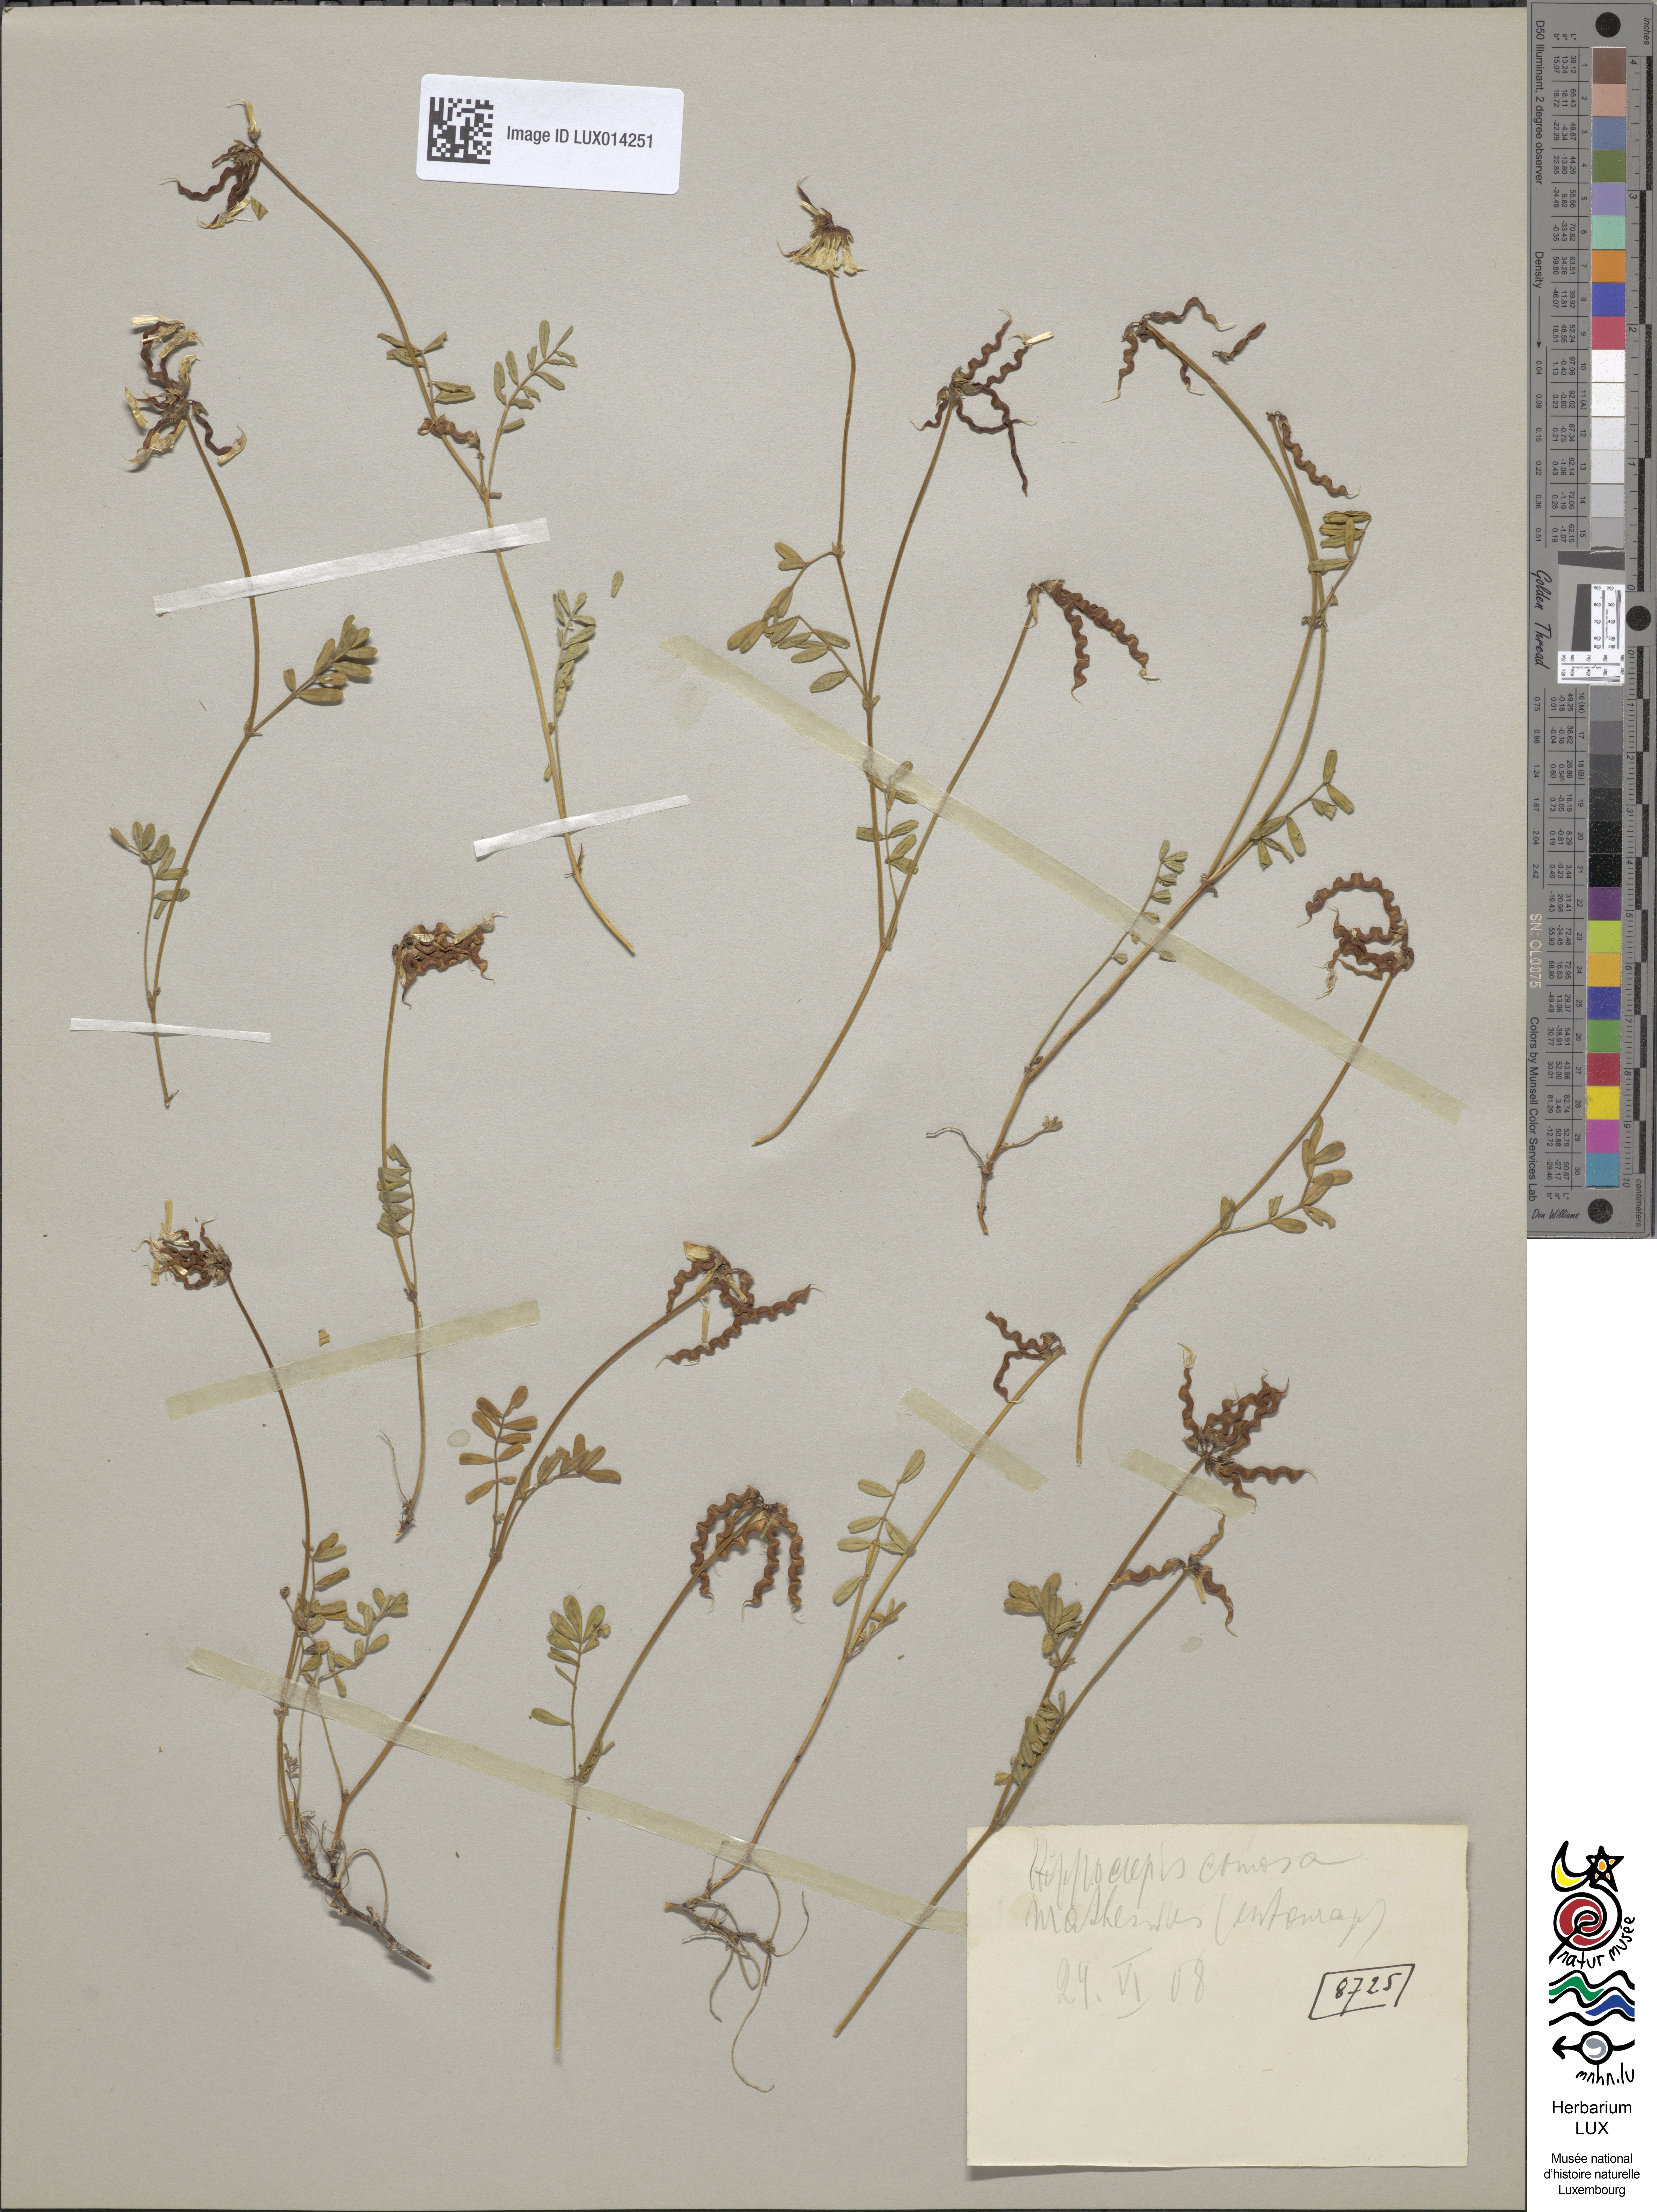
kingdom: Plantae
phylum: Tracheophyta
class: Magnoliopsida
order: Fabales
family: Fabaceae
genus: Hippocrepis
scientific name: Hippocrepis comosa
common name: Horseshoe vetch
